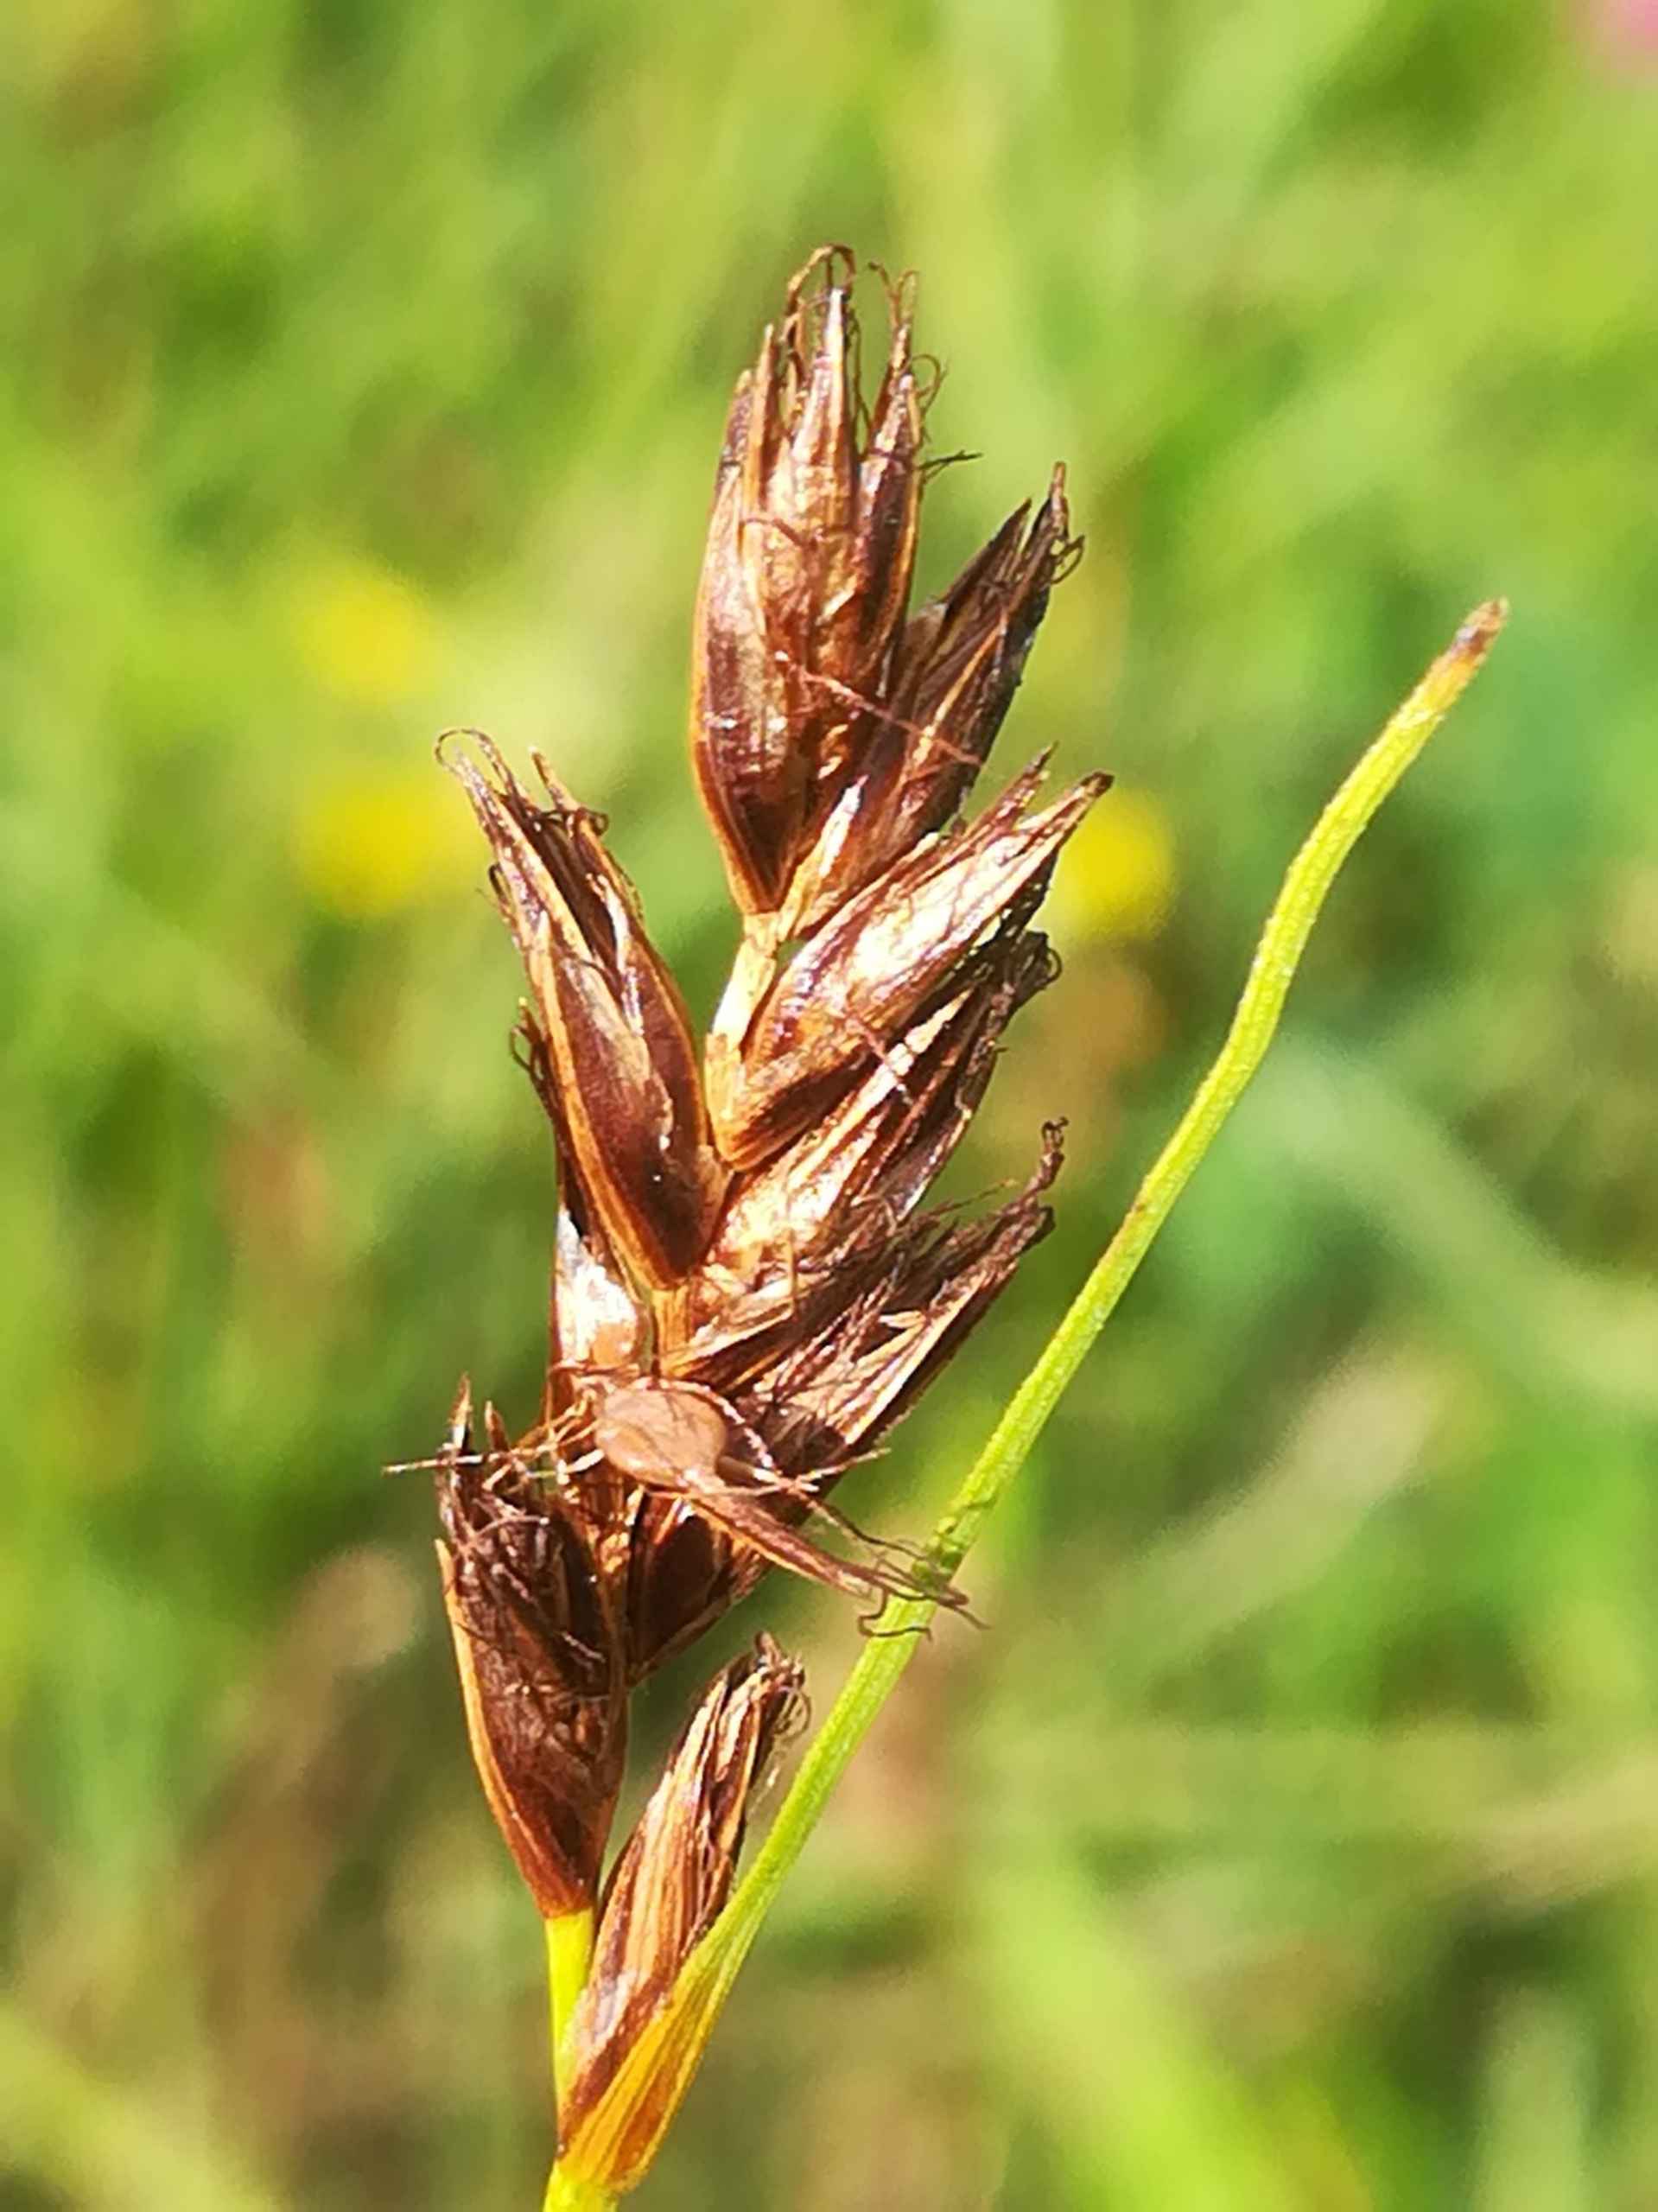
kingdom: Plantae
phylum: Tracheophyta
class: Liliopsida
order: Poales
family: Cyperaceae
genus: Blysmus
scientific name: Blysmus compressus
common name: Fladtrykt kogleaks
